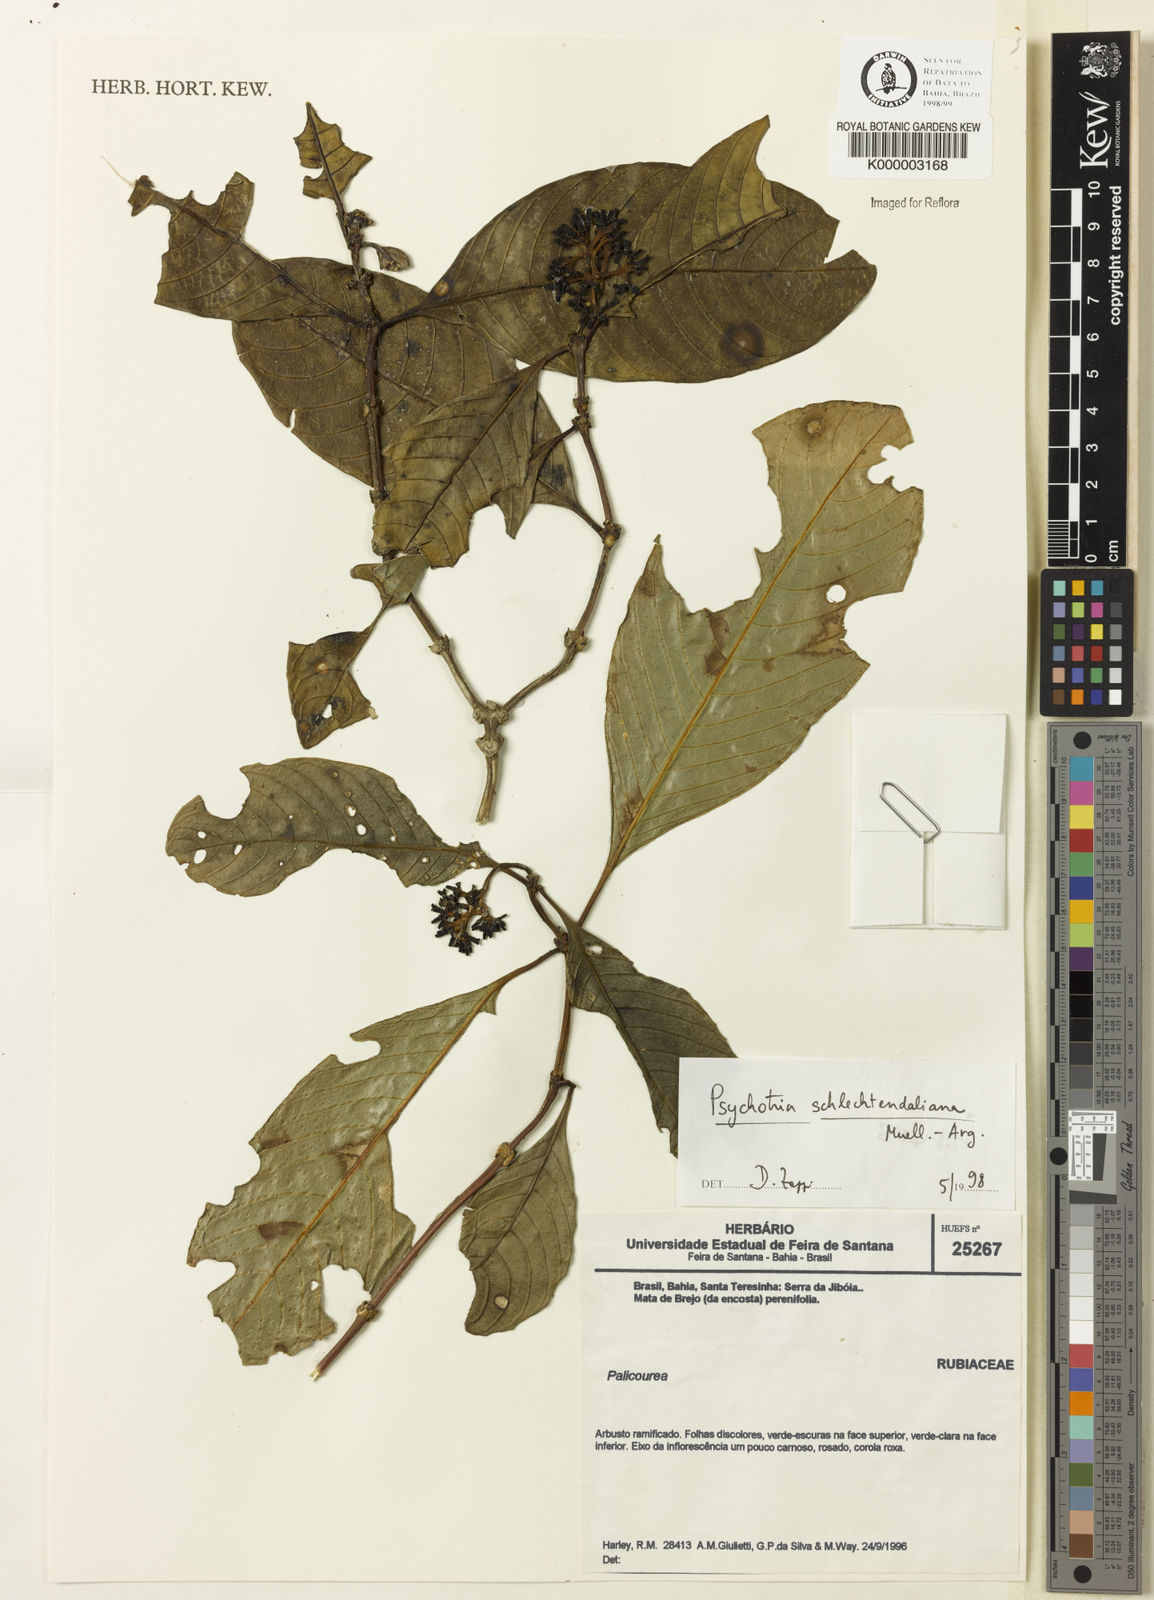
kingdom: Plantae
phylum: Tracheophyta
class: Magnoliopsida
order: Gentianales
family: Rubiaceae
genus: Palicourea
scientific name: Palicourea divaricata
